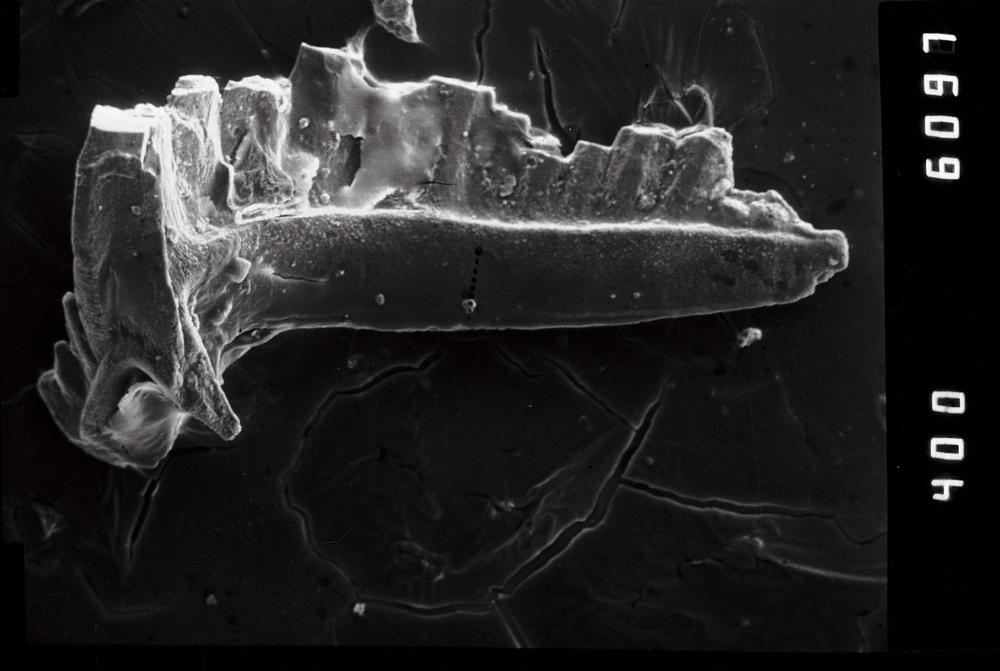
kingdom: Animalia
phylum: Chordata
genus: Oepikodus
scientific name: Oepikodus
